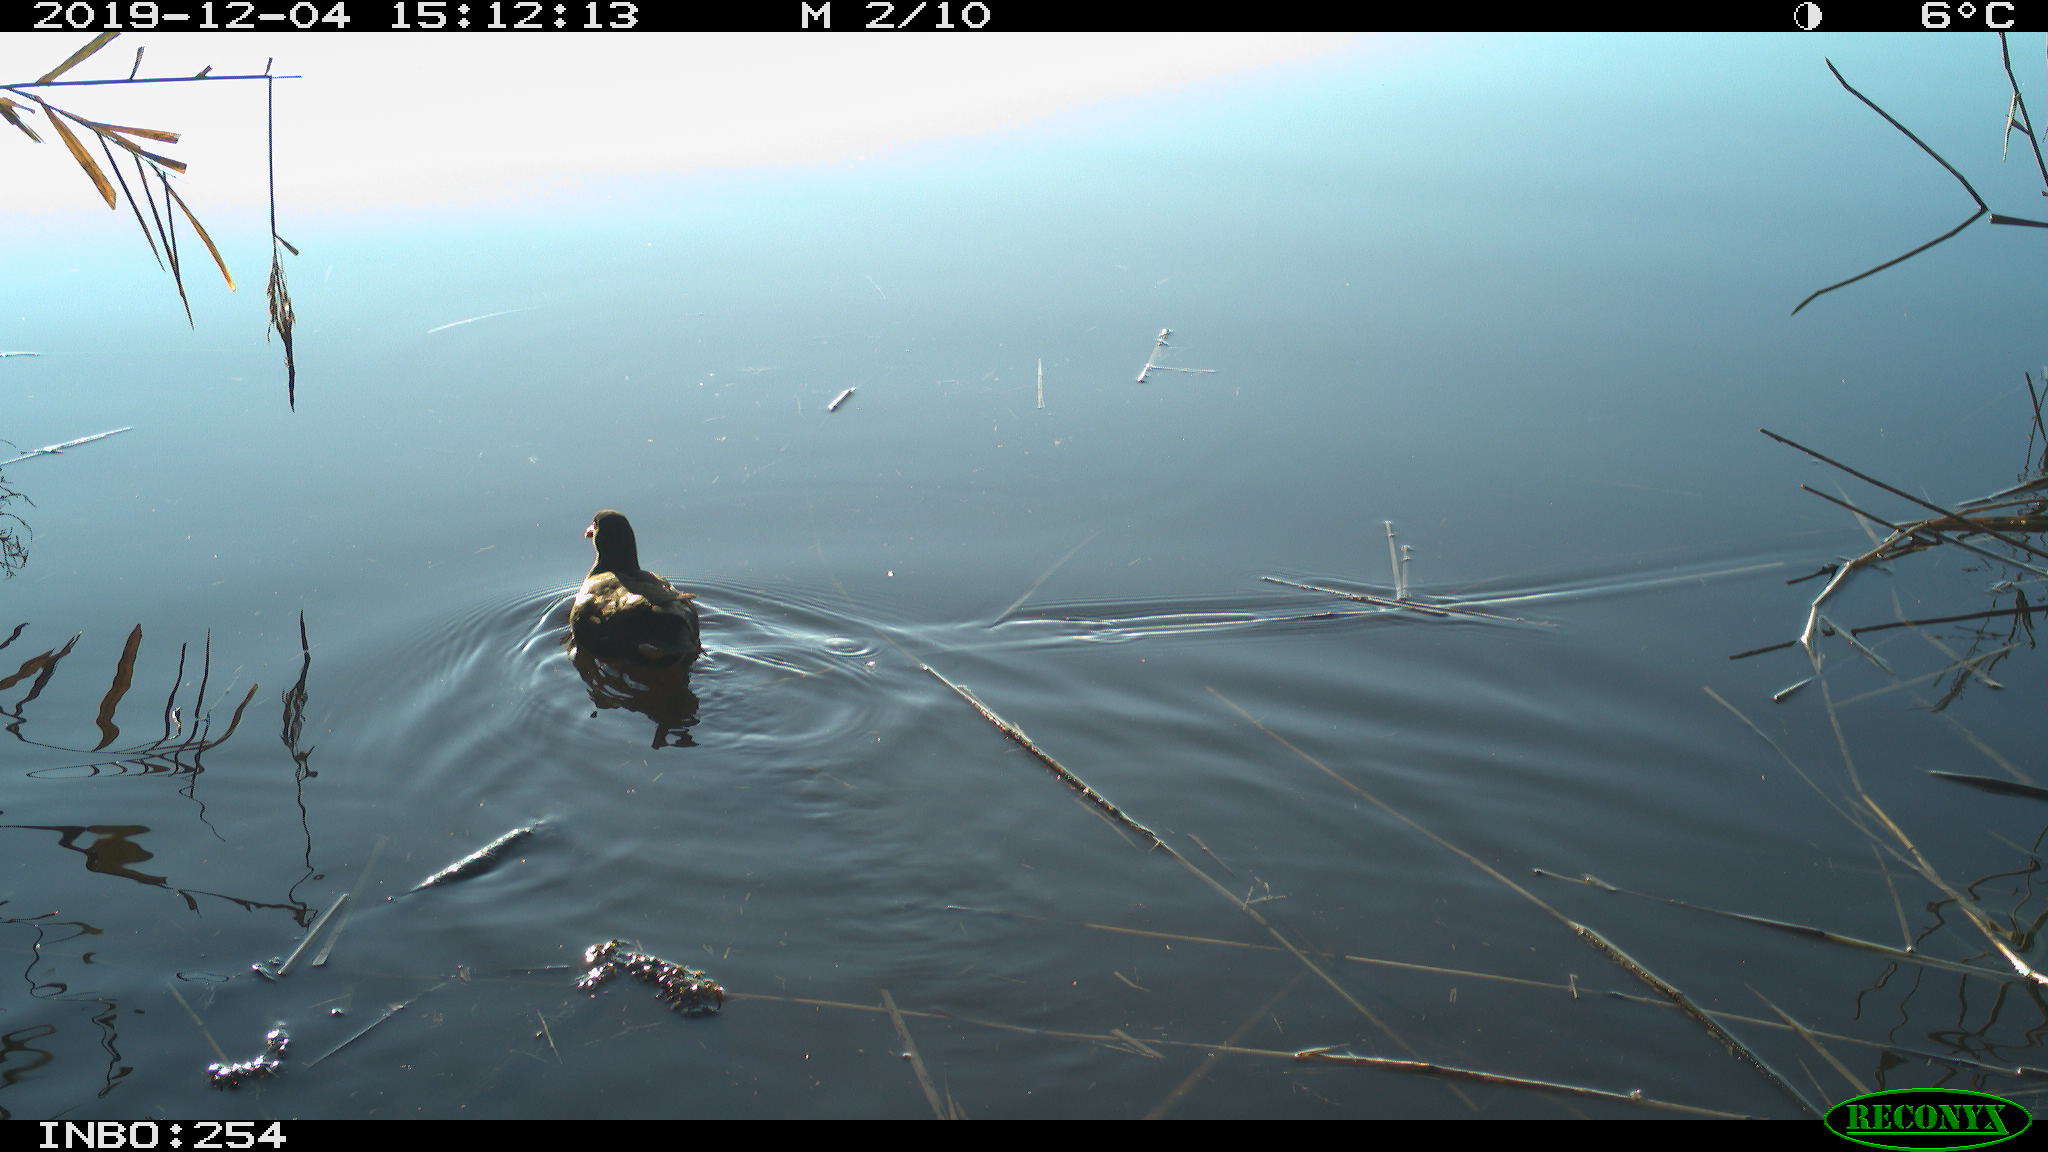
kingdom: Animalia
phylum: Chordata
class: Aves
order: Gruiformes
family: Rallidae
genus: Gallinula
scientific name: Gallinula chloropus
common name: Common moorhen
